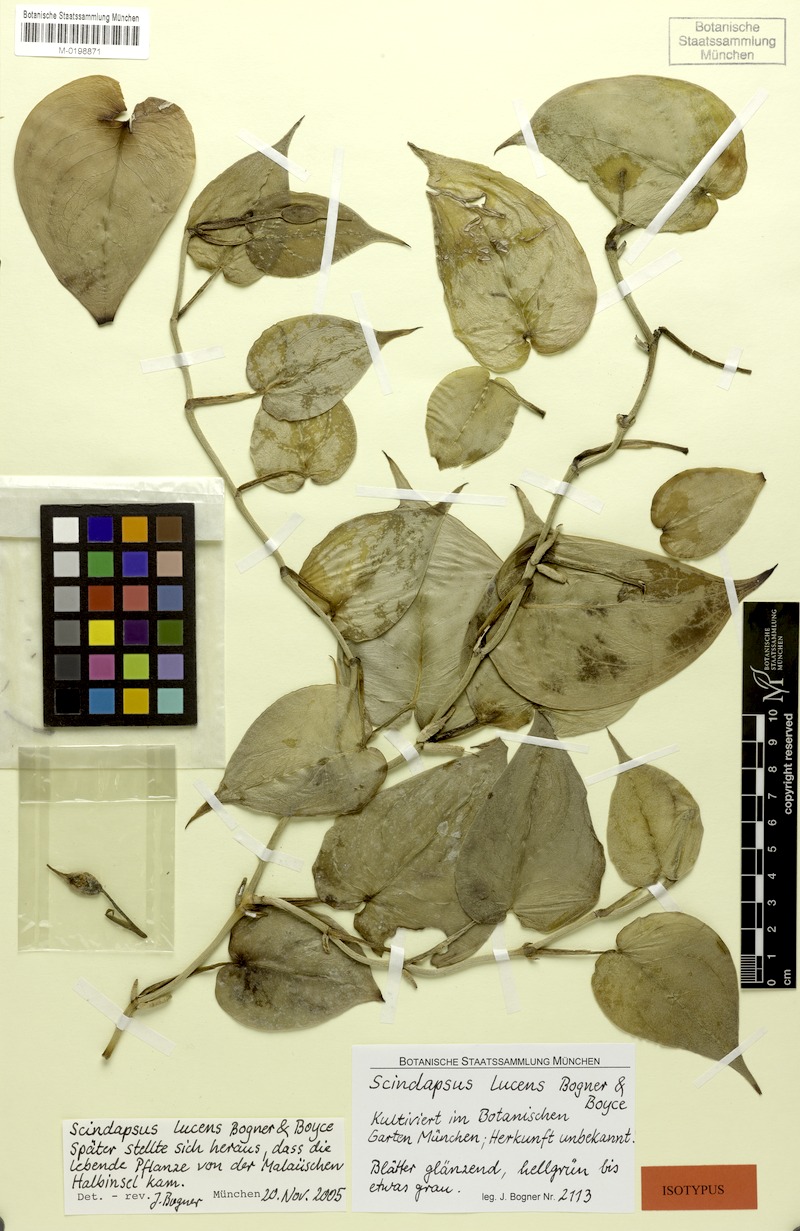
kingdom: Plantae
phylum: Tracheophyta
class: Liliopsida
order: Alismatales
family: Araceae
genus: Scindapsus
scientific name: Scindapsus lucens
